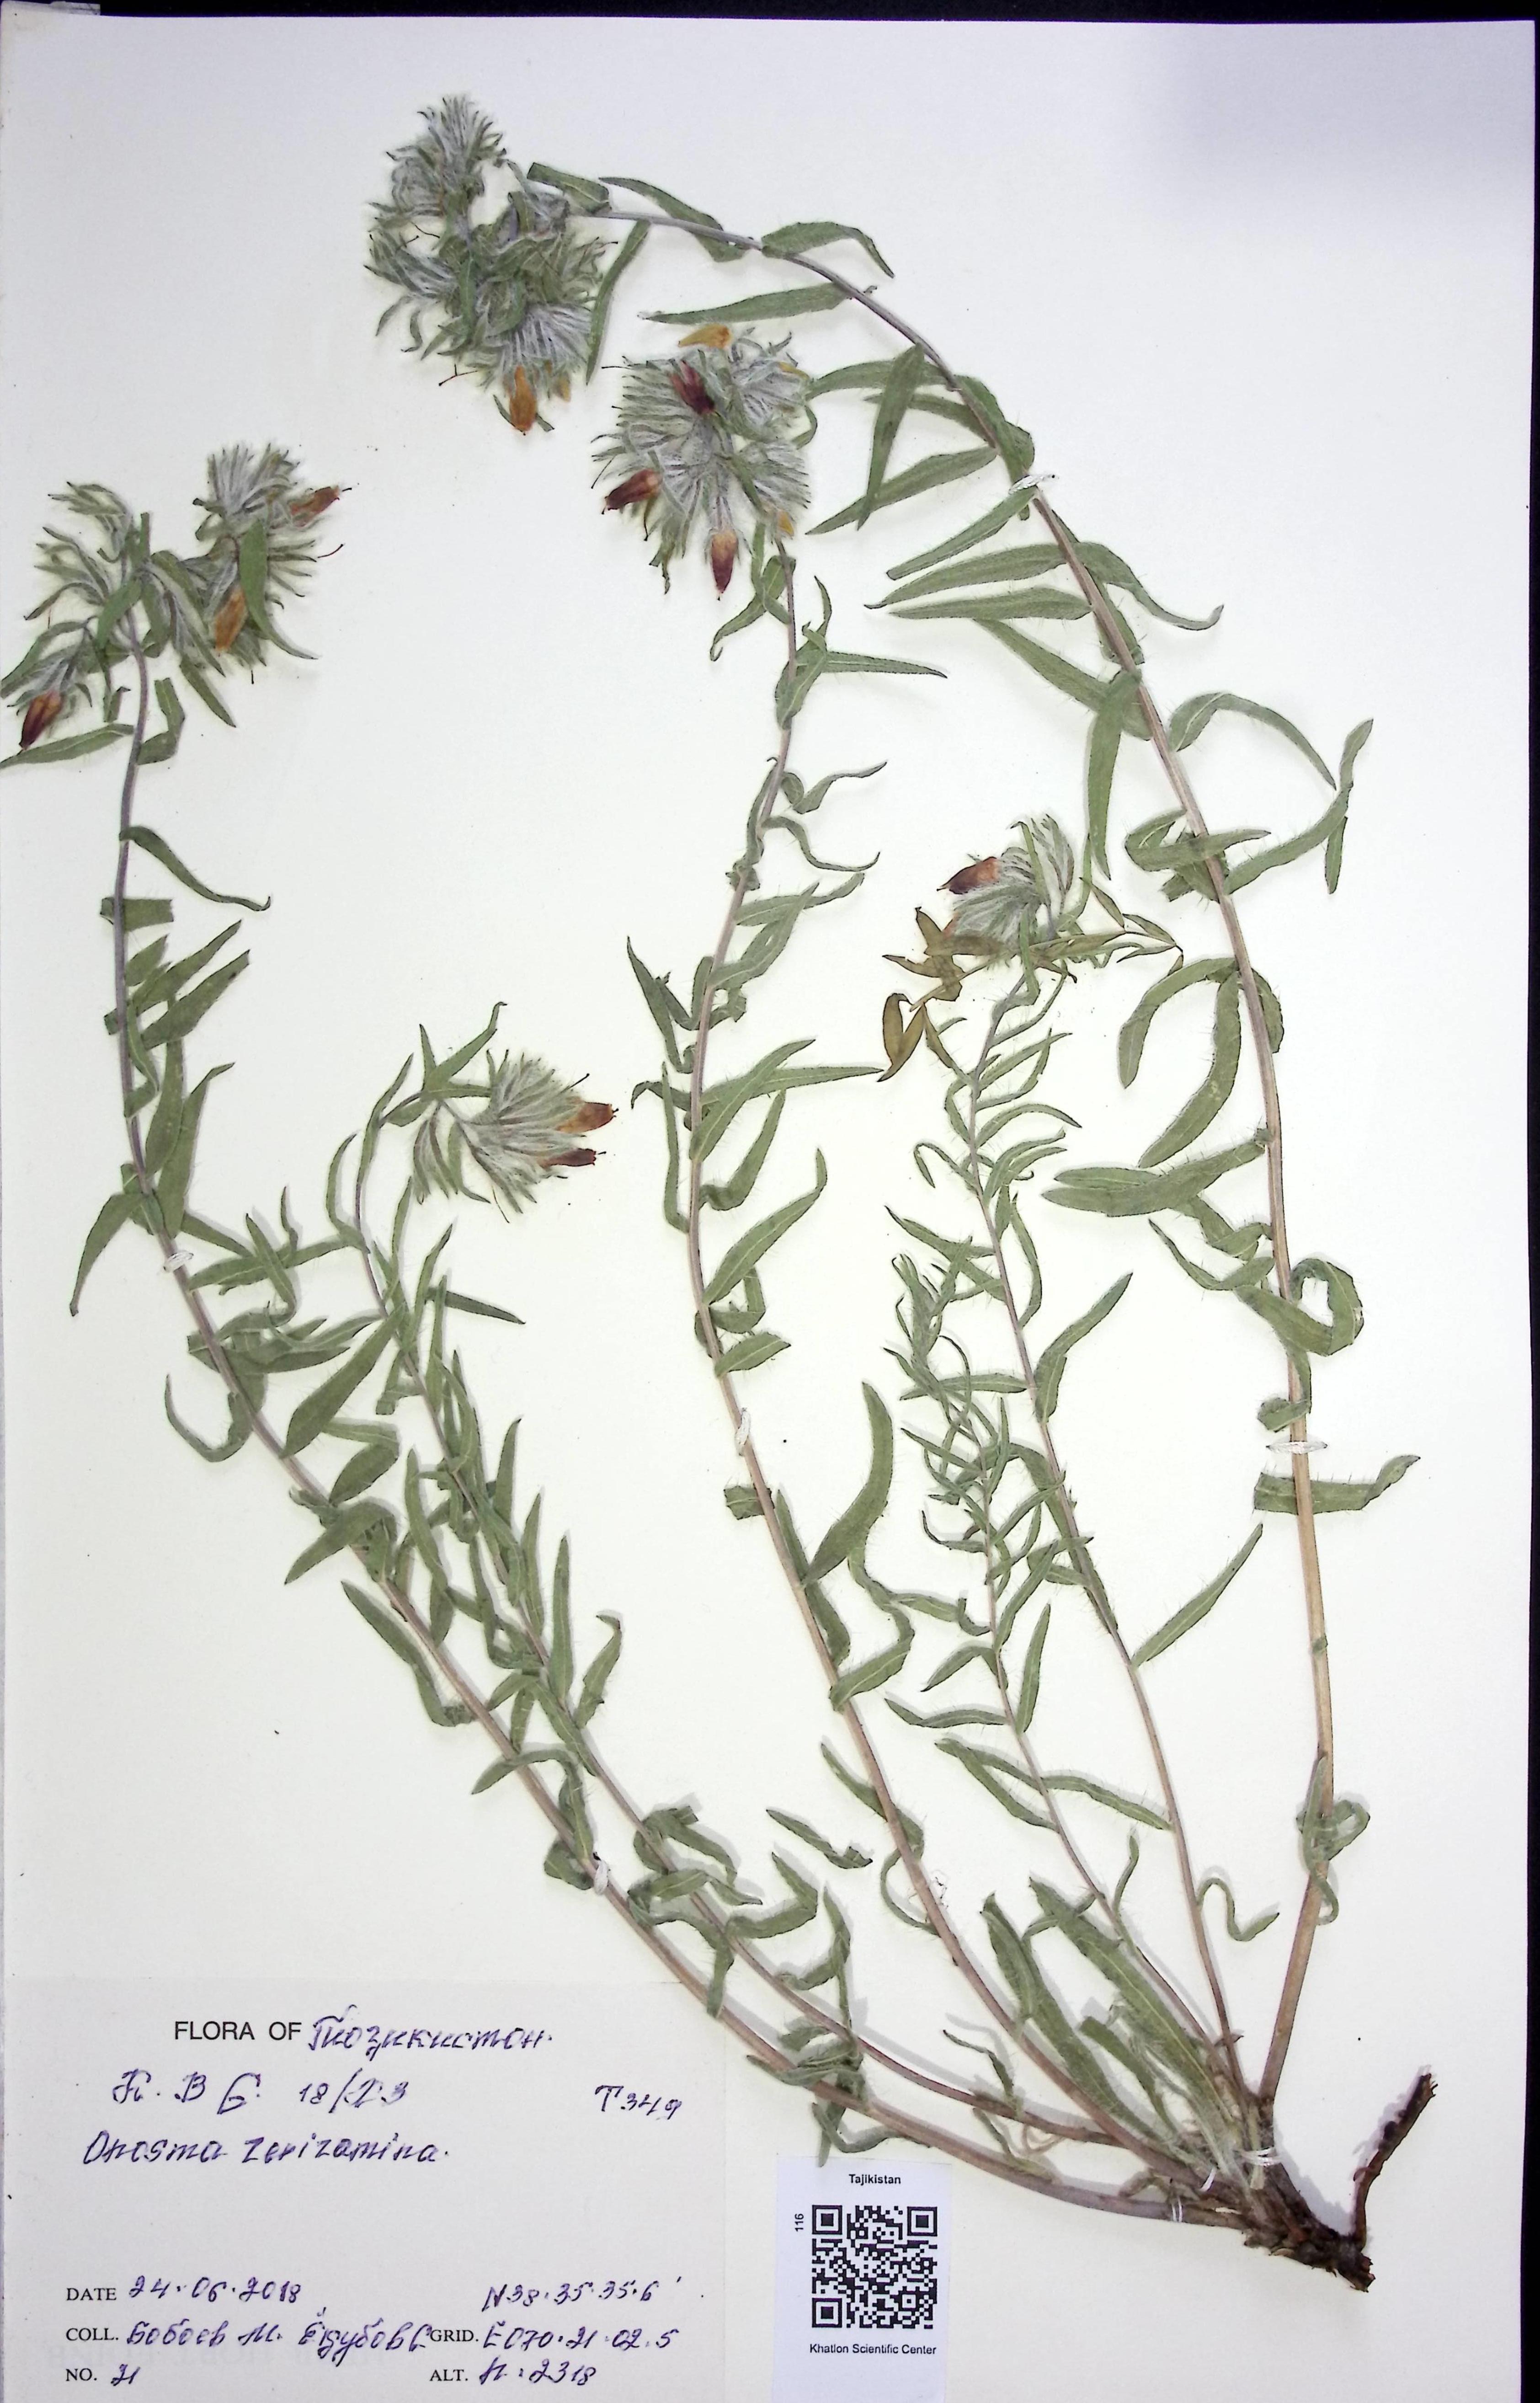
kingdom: Plantae
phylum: Tracheophyta
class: Magnoliopsida
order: Boraginales
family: Boraginaceae
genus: Onosma
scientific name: Onosma
